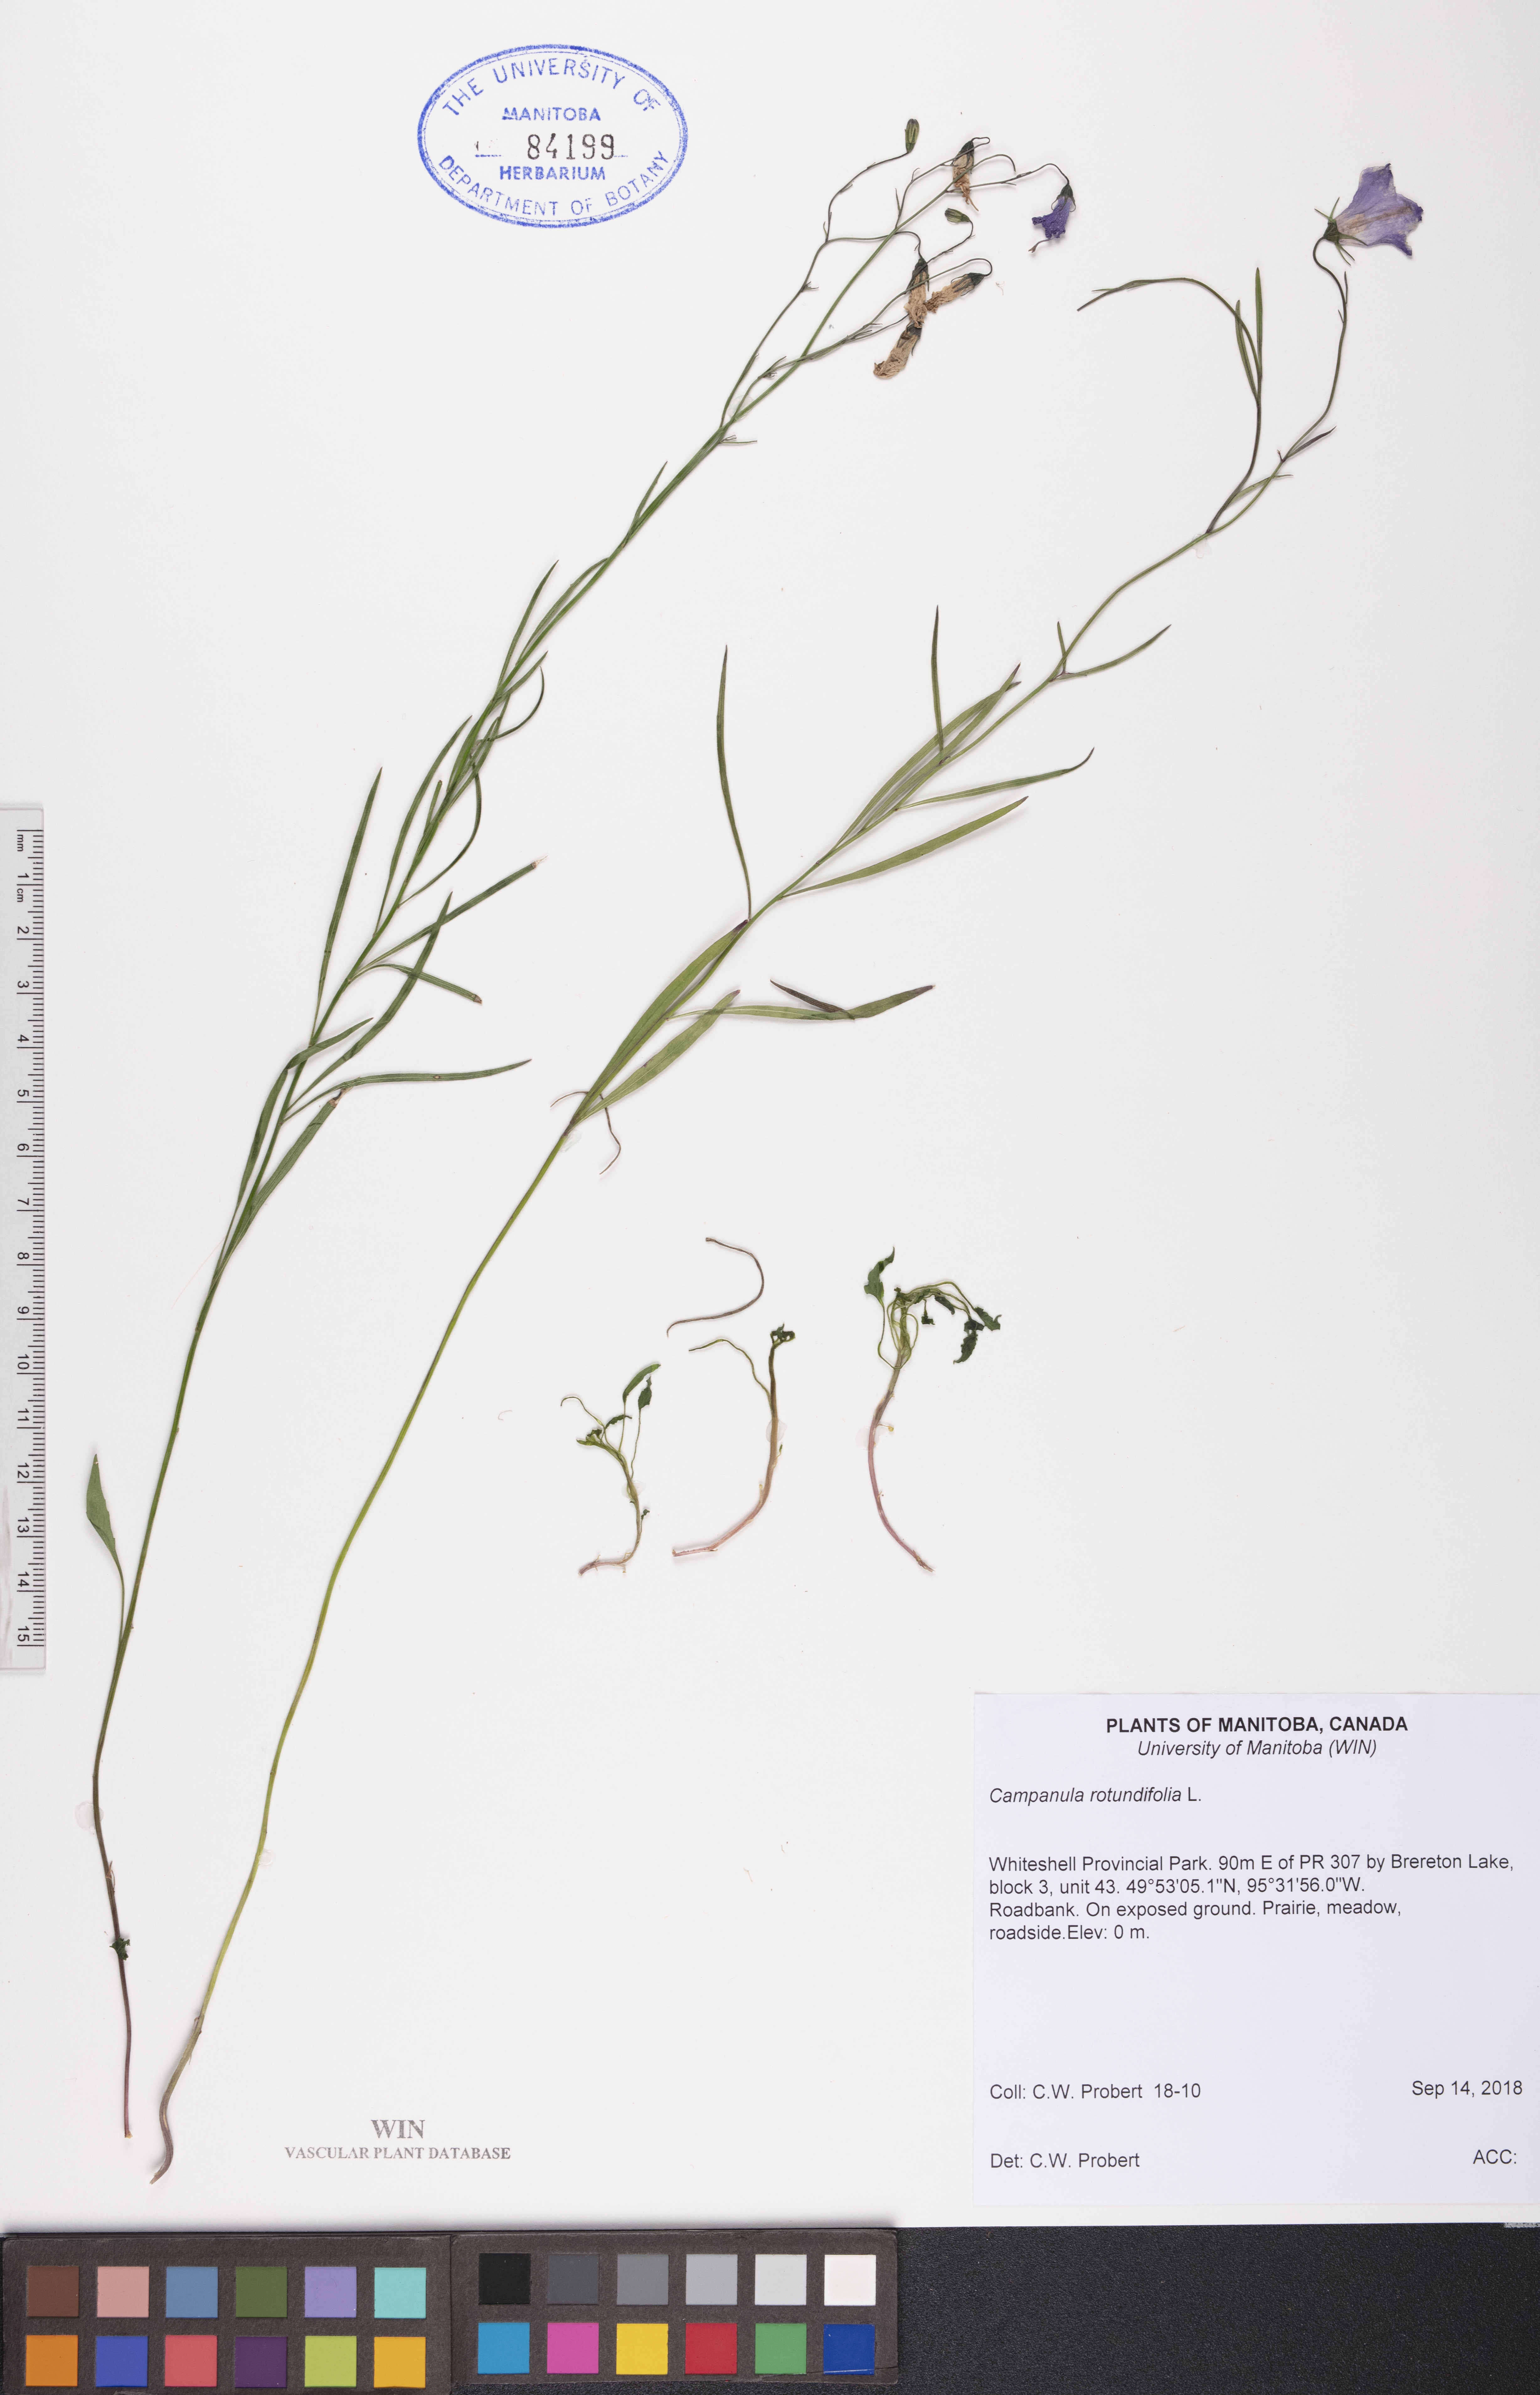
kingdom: Plantae
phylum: Tracheophyta
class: Magnoliopsida
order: Asterales
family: Campanulaceae
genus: Campanula
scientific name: Campanula rotundifolia
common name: Harebell
